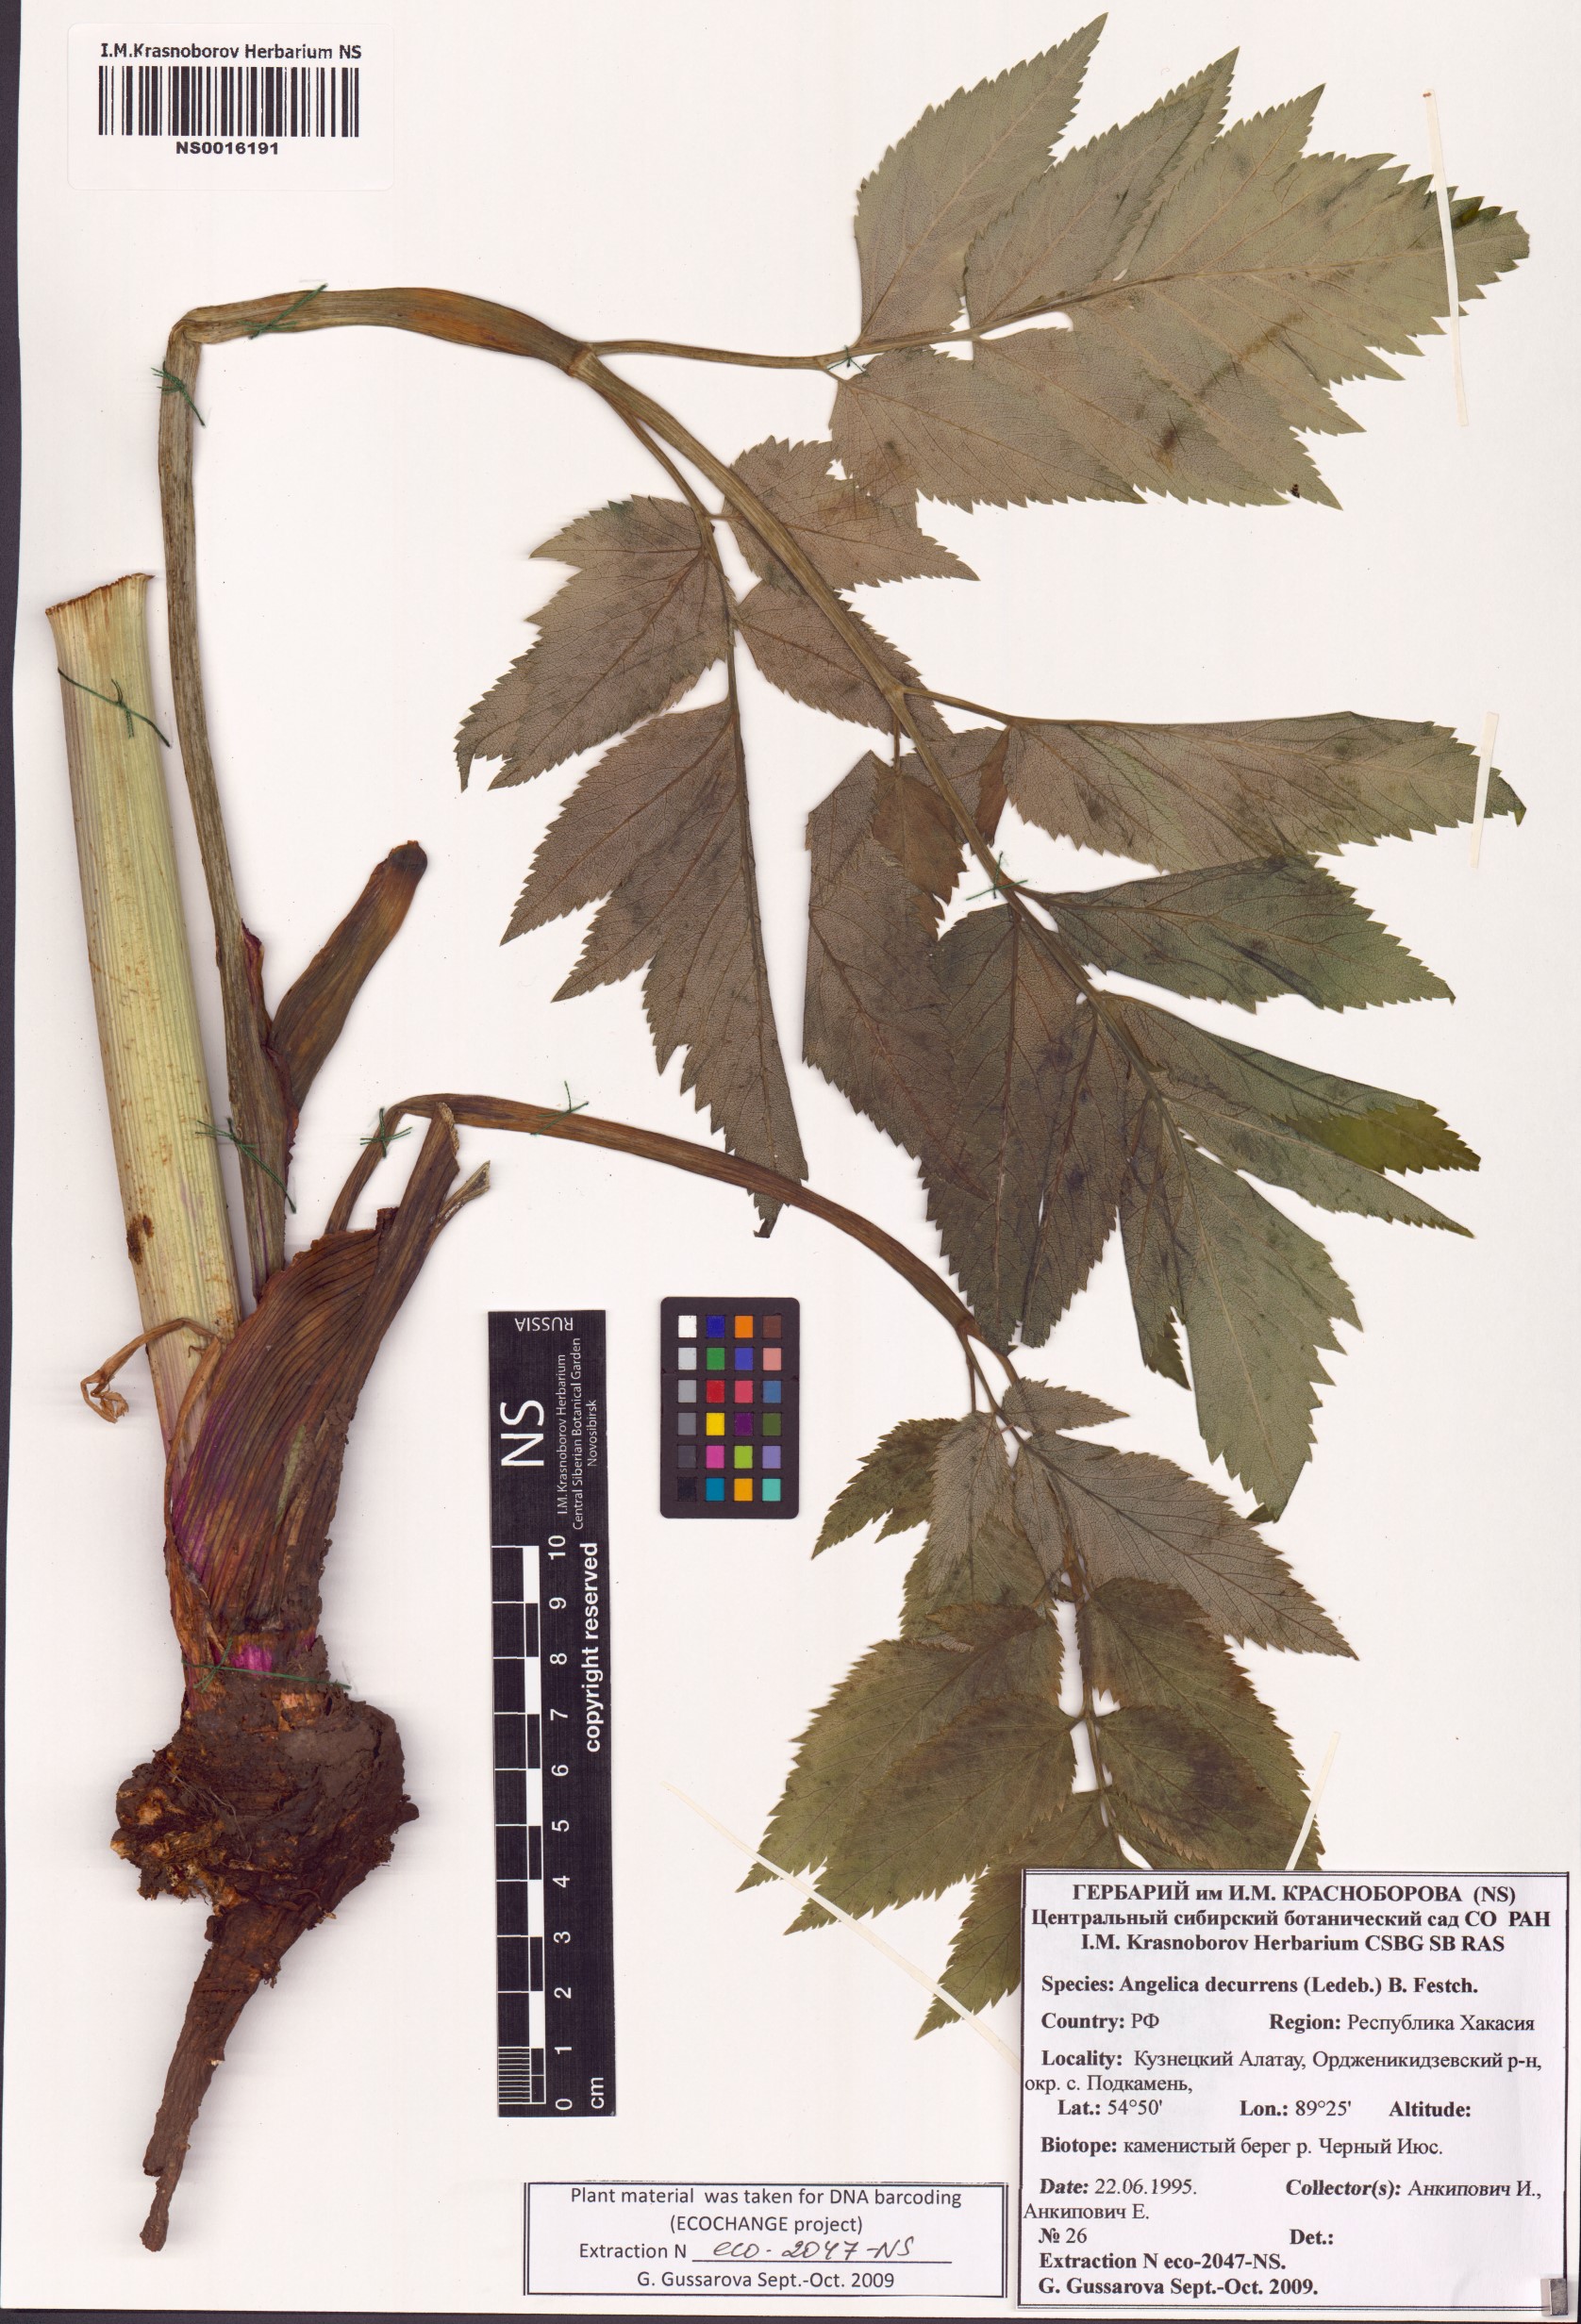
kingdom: Plantae
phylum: Tracheophyta
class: Magnoliopsida
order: Apiales
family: Apiaceae
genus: Angelica
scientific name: Angelica decurrens
